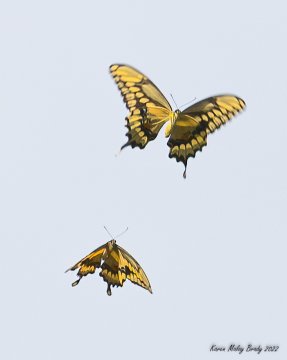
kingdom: Animalia
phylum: Arthropoda
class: Insecta
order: Lepidoptera
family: Papilionidae
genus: Papilio
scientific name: Papilio cresphontes
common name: Eastern Giant Swallowtail
